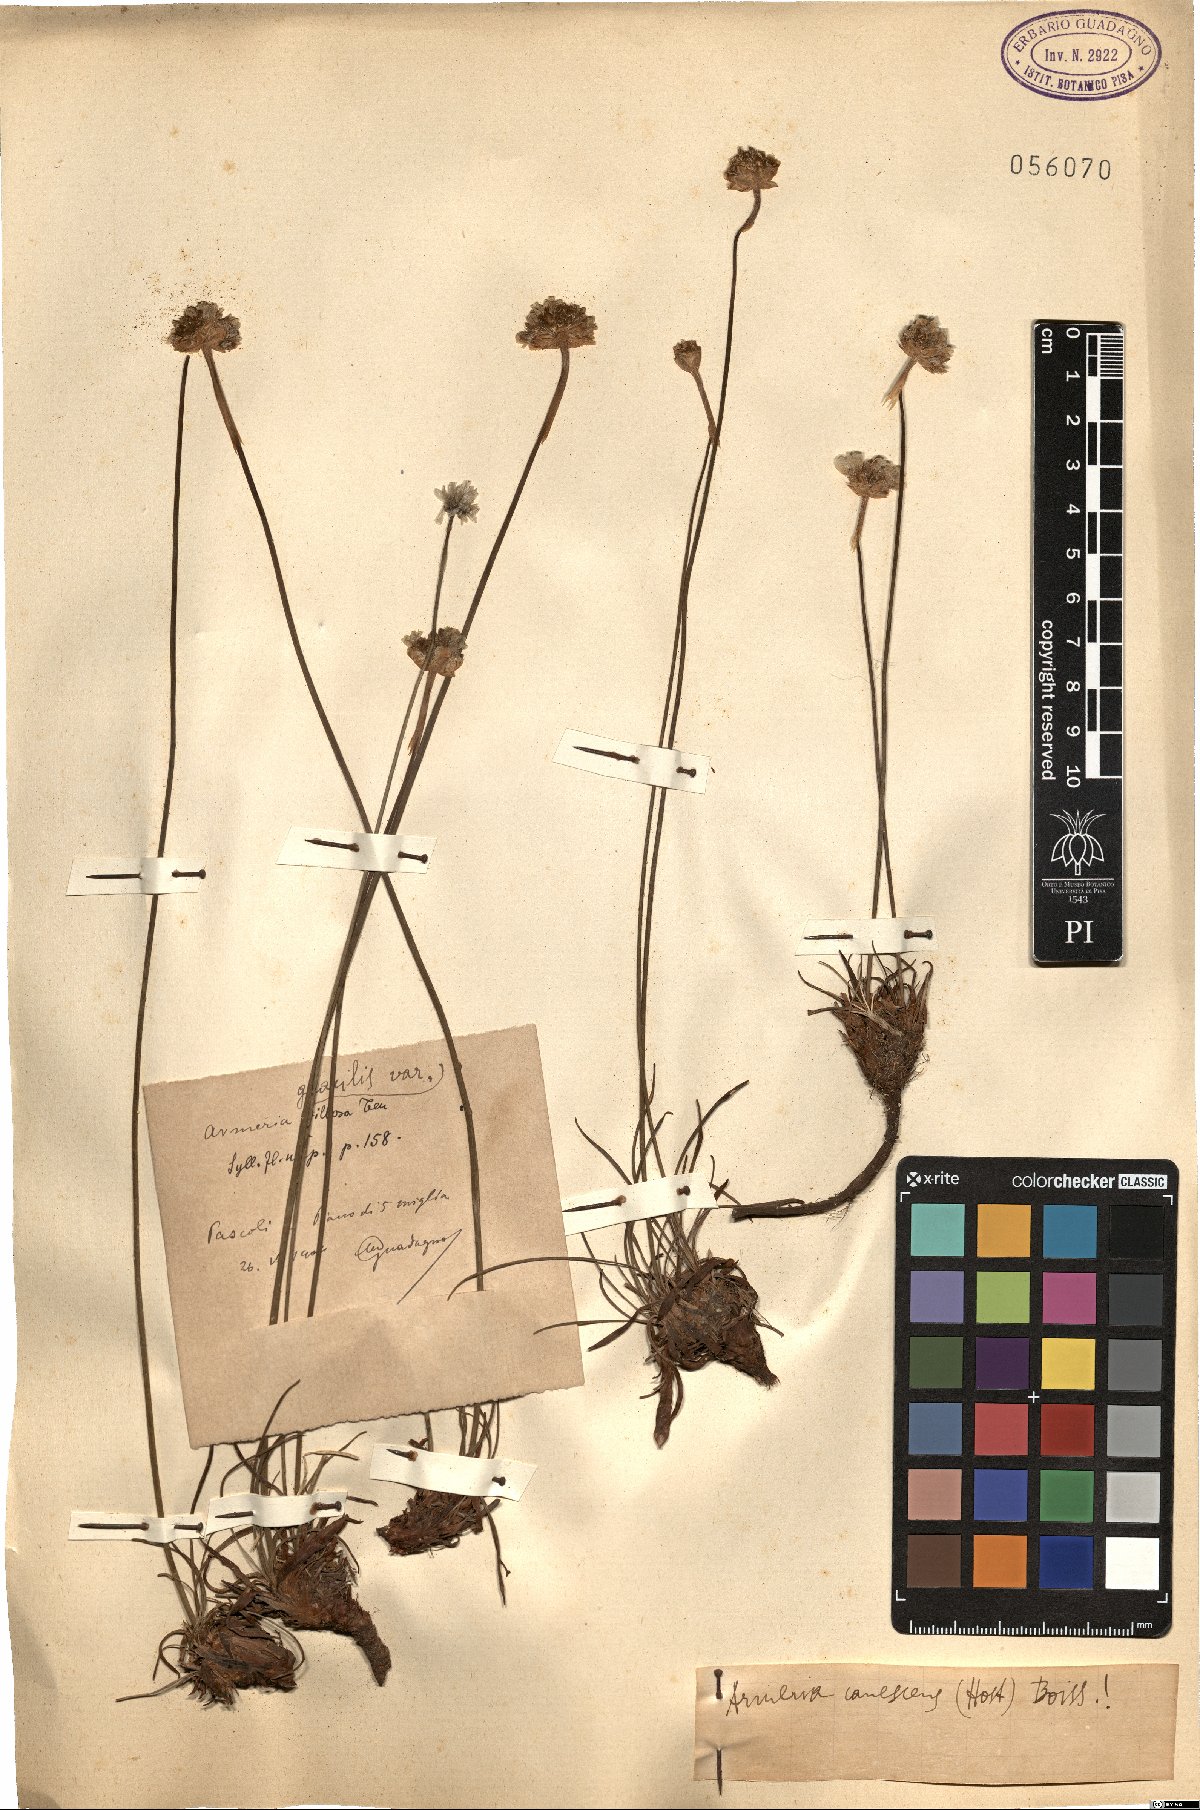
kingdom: Plantae
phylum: Tracheophyta
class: Magnoliopsida
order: Caryophyllales
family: Plumbaginaceae
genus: Armeria
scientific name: Armeria canescens
